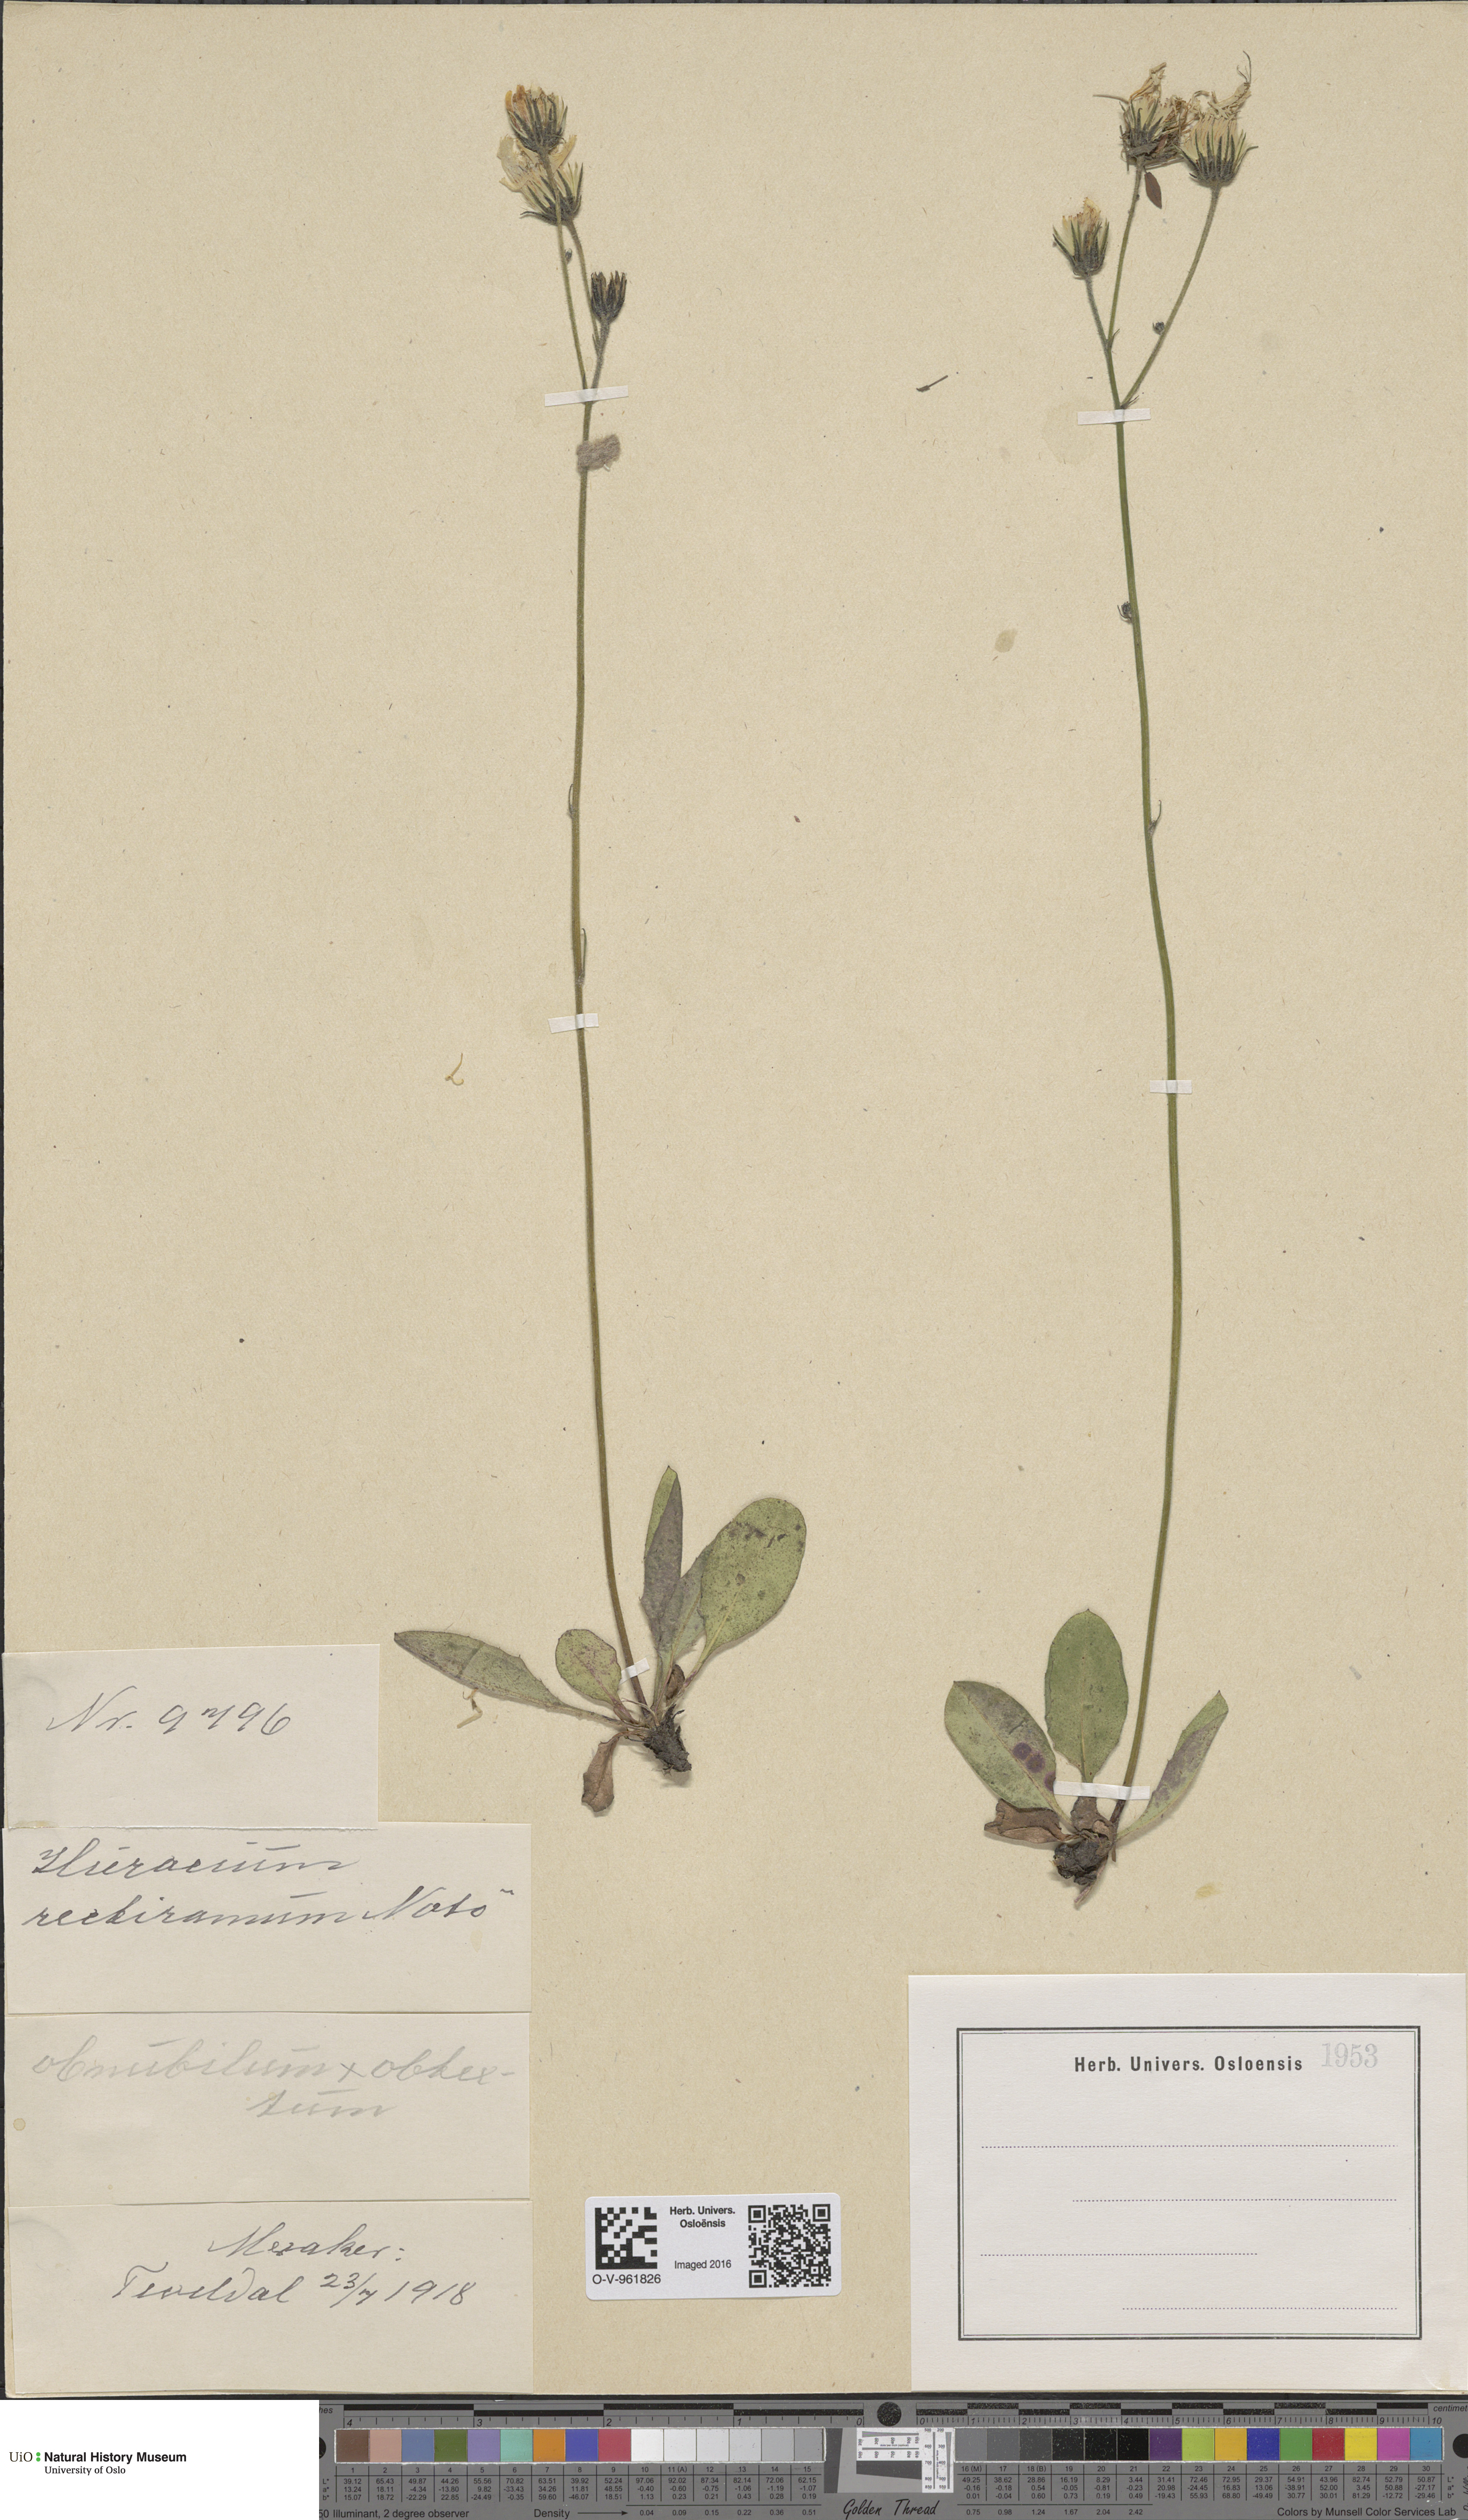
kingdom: Plantae
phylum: Tracheophyta
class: Magnoliopsida
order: Asterales
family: Asteraceae
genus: Hieracium
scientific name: Hieracium
